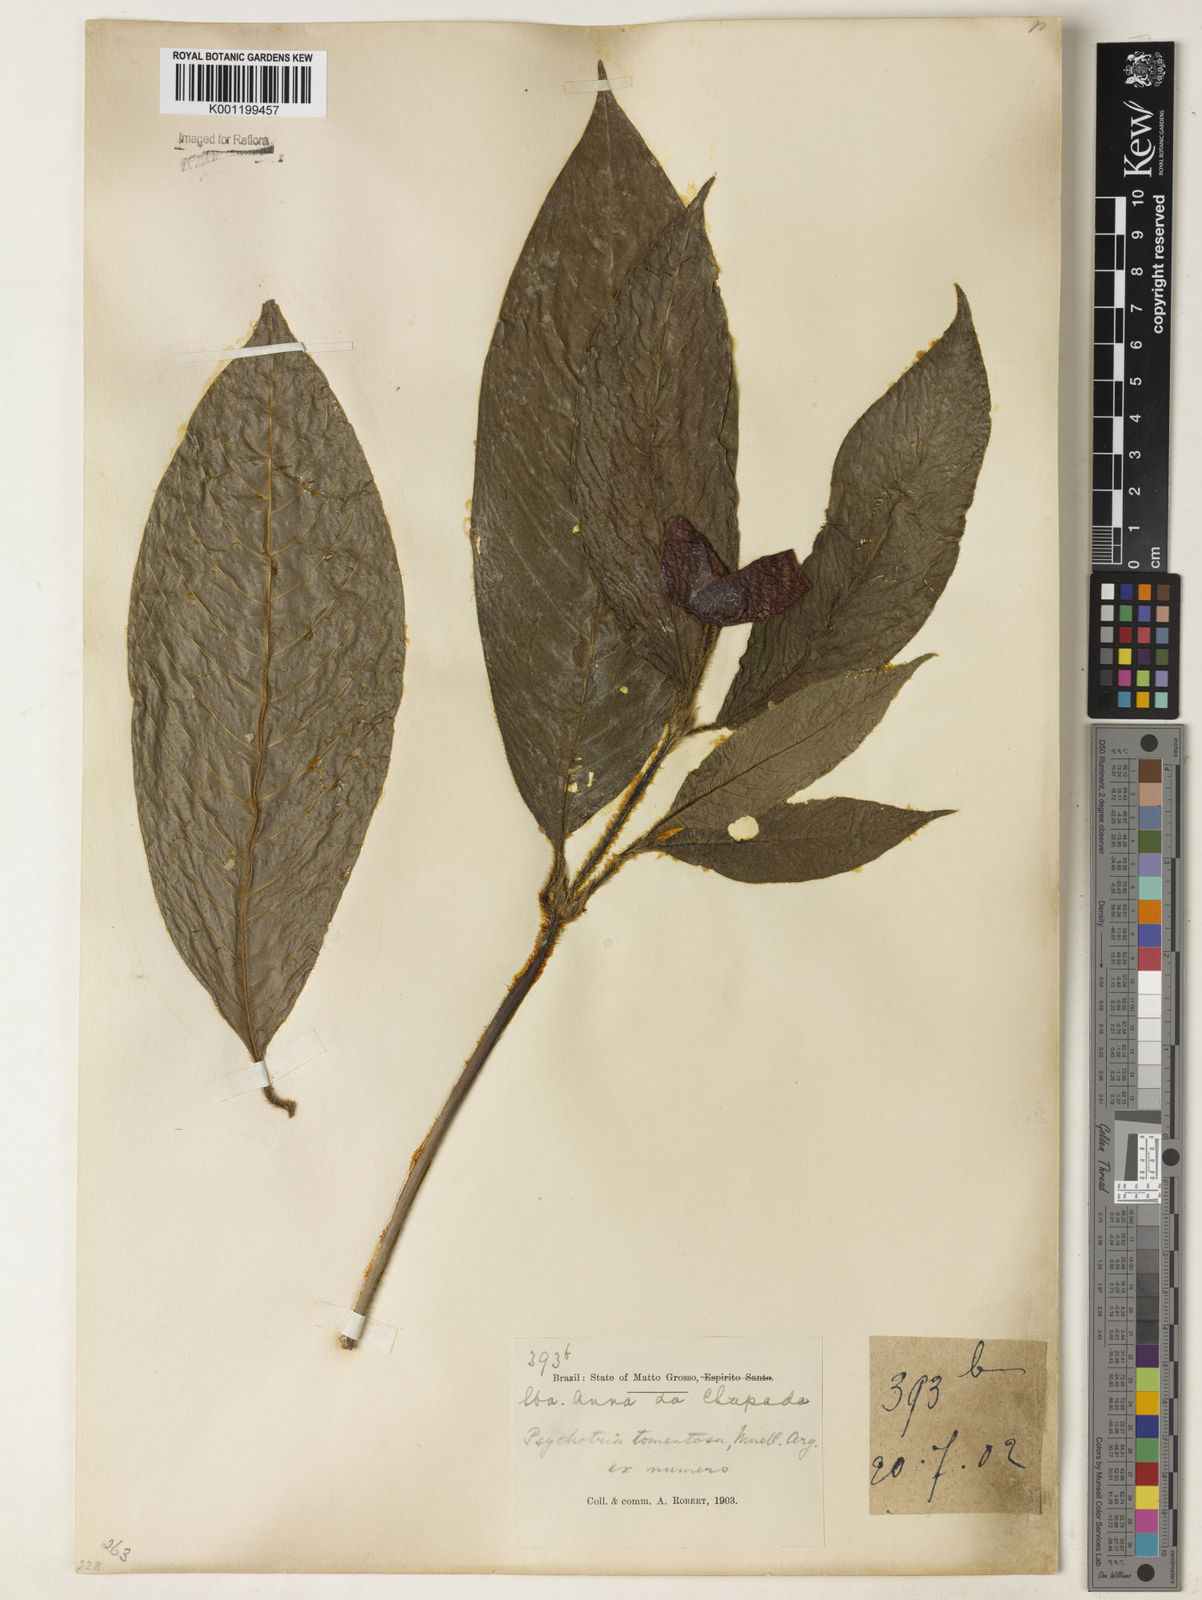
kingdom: Plantae
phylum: Tracheophyta
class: Magnoliopsida
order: Gentianales
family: Rubiaceae
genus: Psychotria
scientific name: Psychotria
